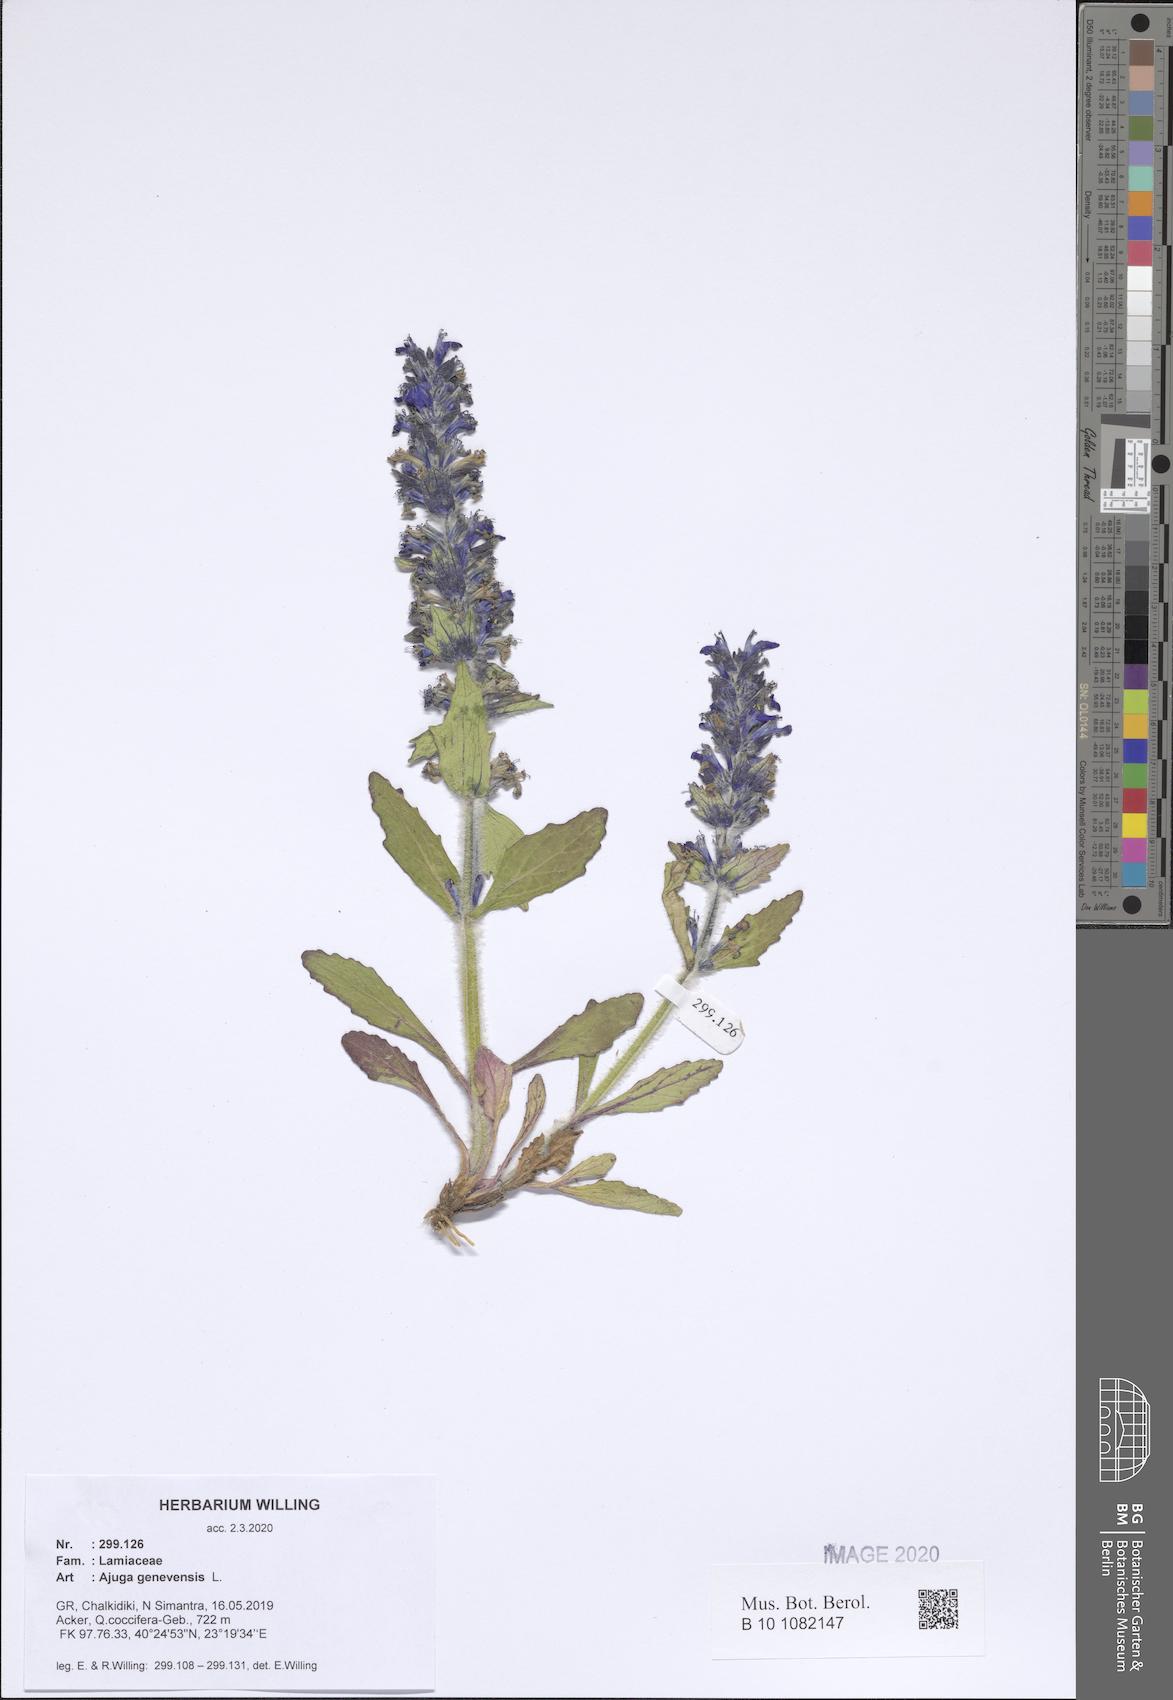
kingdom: Plantae
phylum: Tracheophyta
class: Magnoliopsida
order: Lamiales
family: Lamiaceae
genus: Ajuga
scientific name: Ajuga genevensis
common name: Blue bugle
